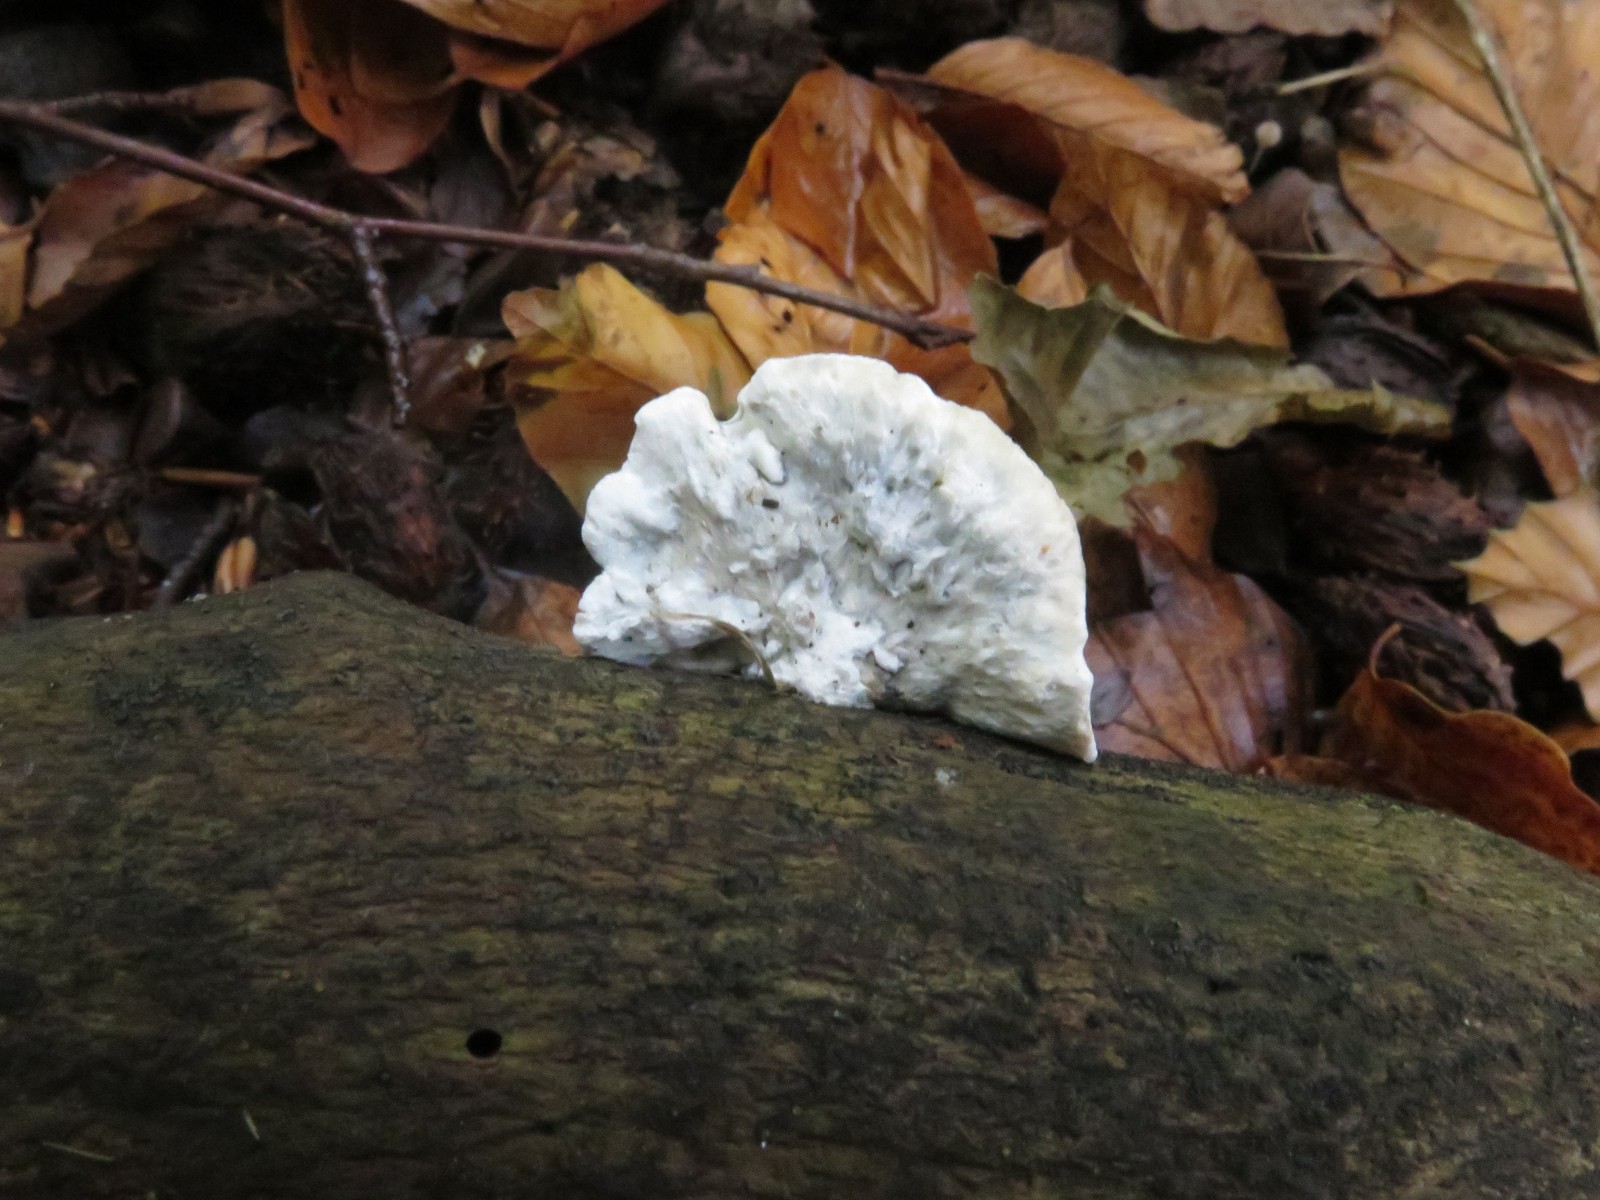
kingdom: Fungi
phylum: Basidiomycota
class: Agaricomycetes
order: Polyporales
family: Polyporaceae
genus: Cyanosporus
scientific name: Cyanosporus caesius
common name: blålig kødporesvamp
